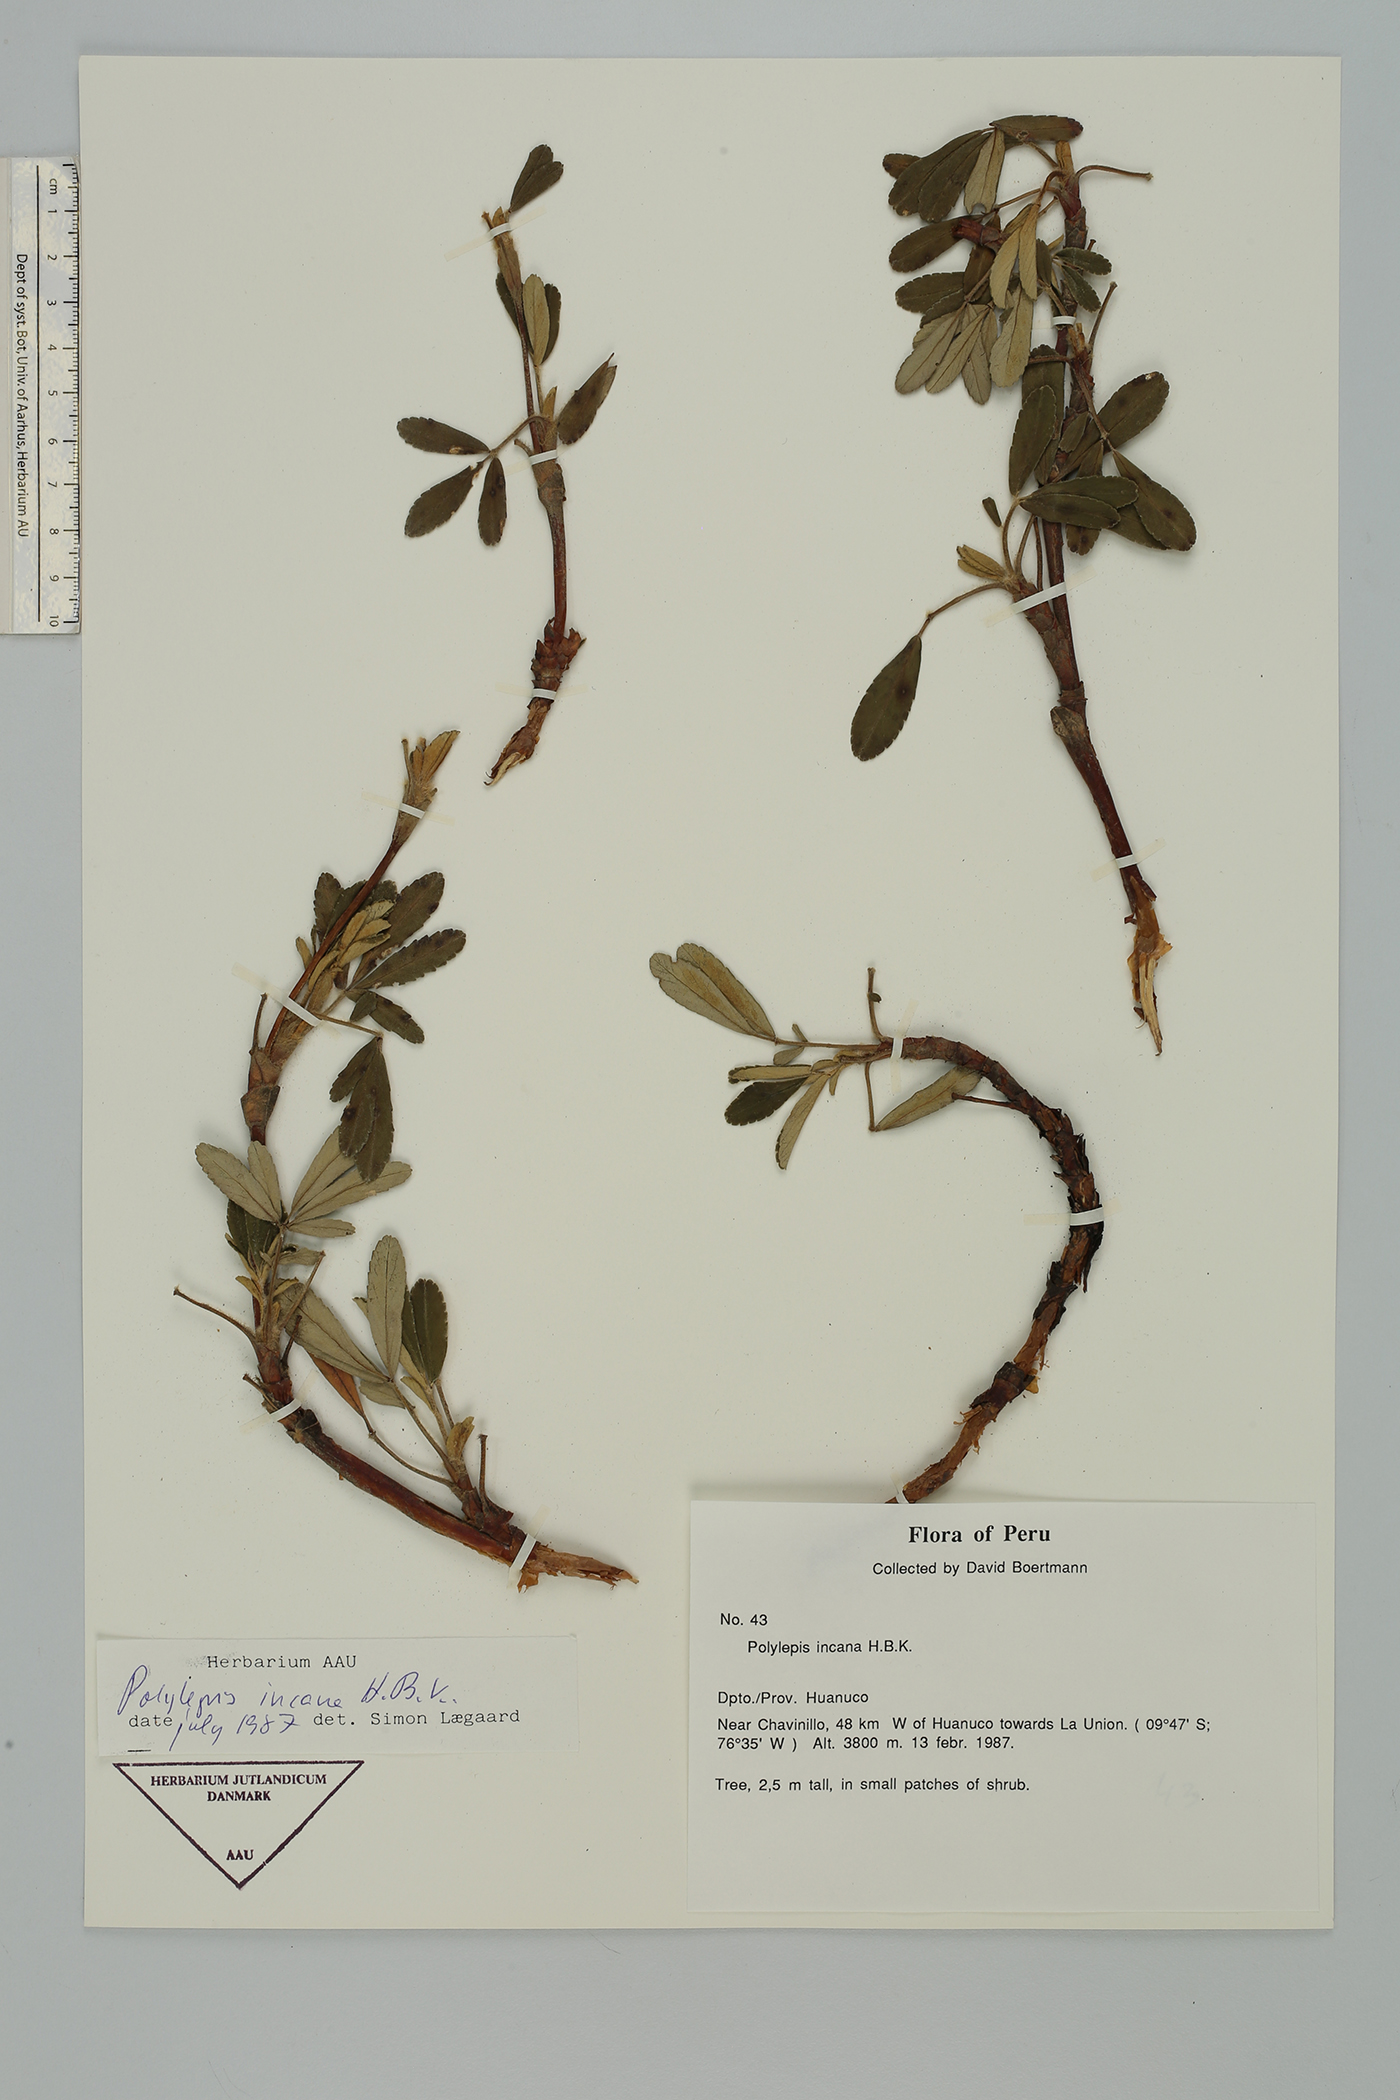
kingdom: Plantae
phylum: Tracheophyta
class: Magnoliopsida
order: Rosales
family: Rosaceae
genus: Polylepis
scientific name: Polylepis incana
